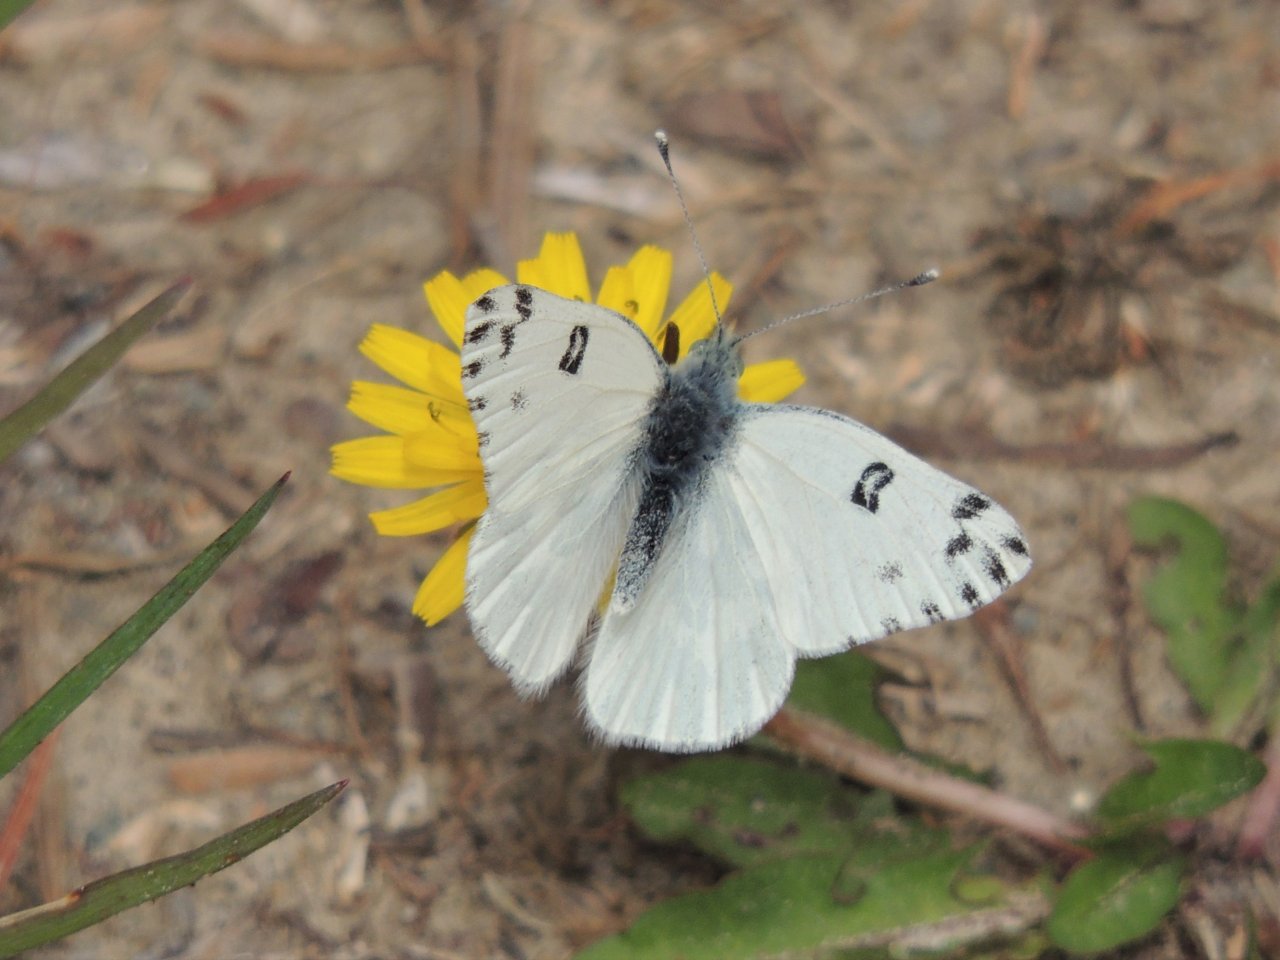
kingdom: Animalia
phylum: Arthropoda
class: Insecta
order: Lepidoptera
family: Pieridae
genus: Pontia
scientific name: Pontia occidentalis
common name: Western White
